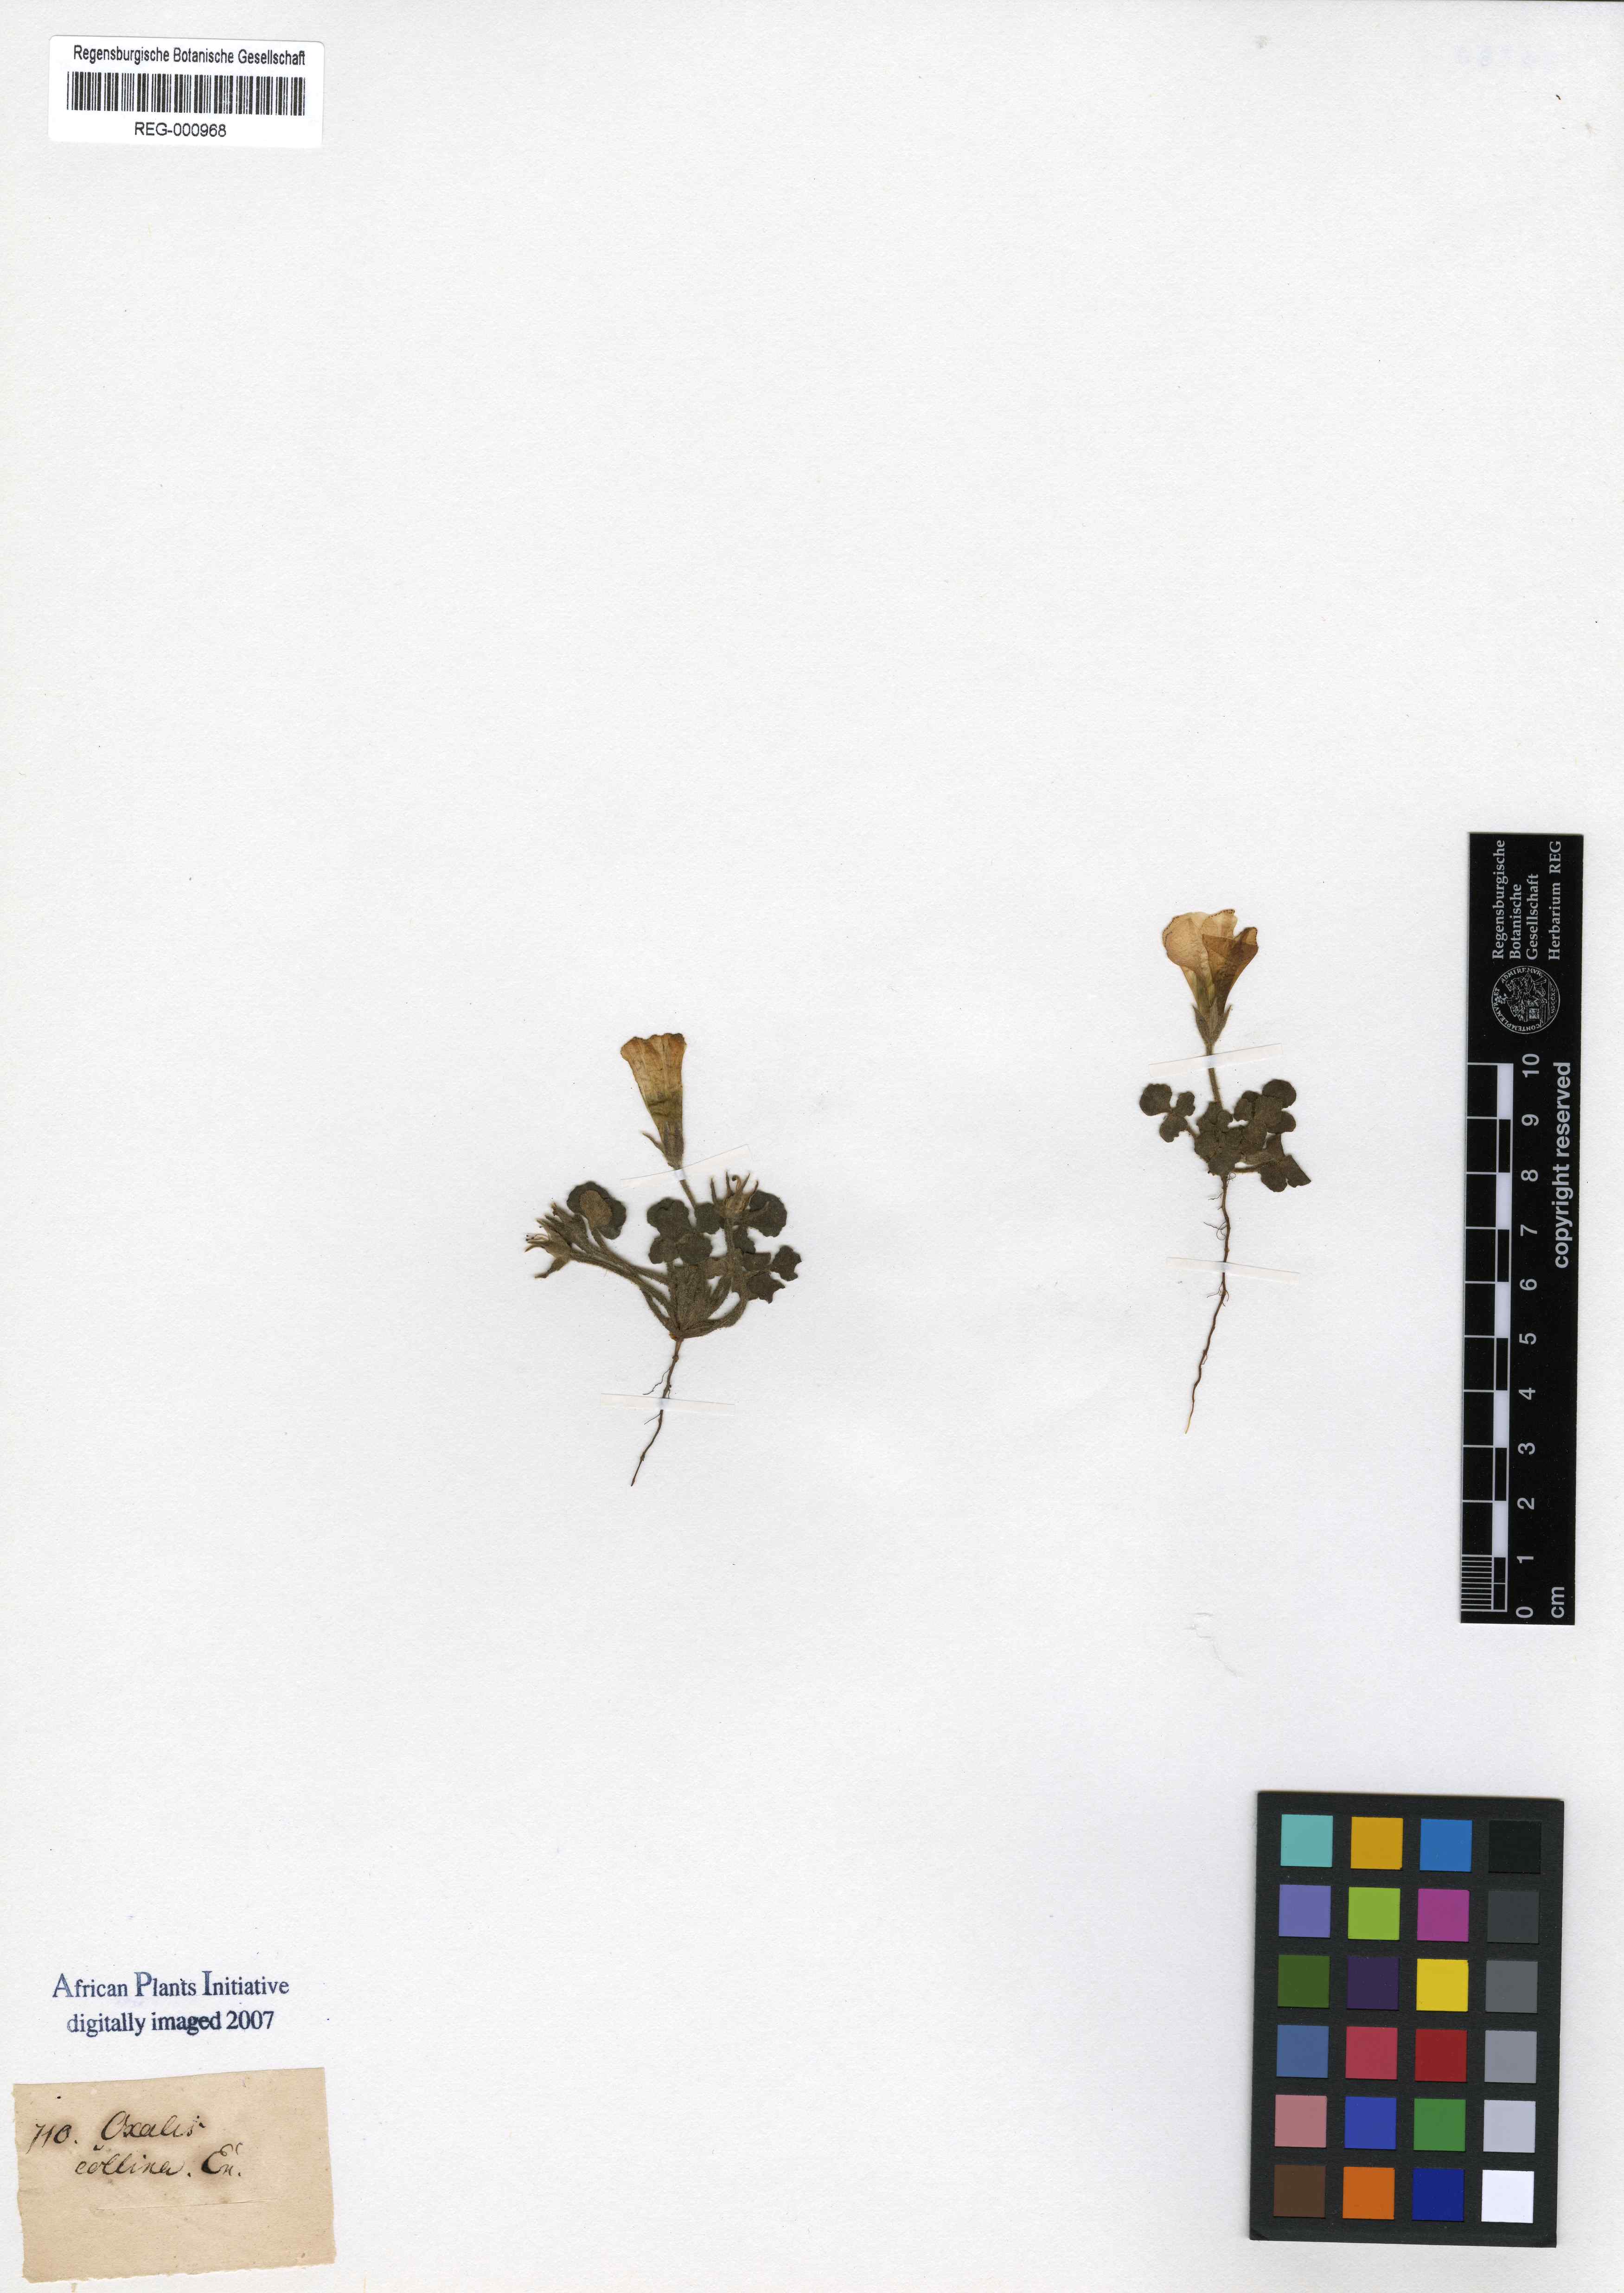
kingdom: Plantae
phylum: Tracheophyta
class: Magnoliopsida
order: Oxalidales
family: Oxalidaceae
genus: Oxalis
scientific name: Oxalis algoensis
